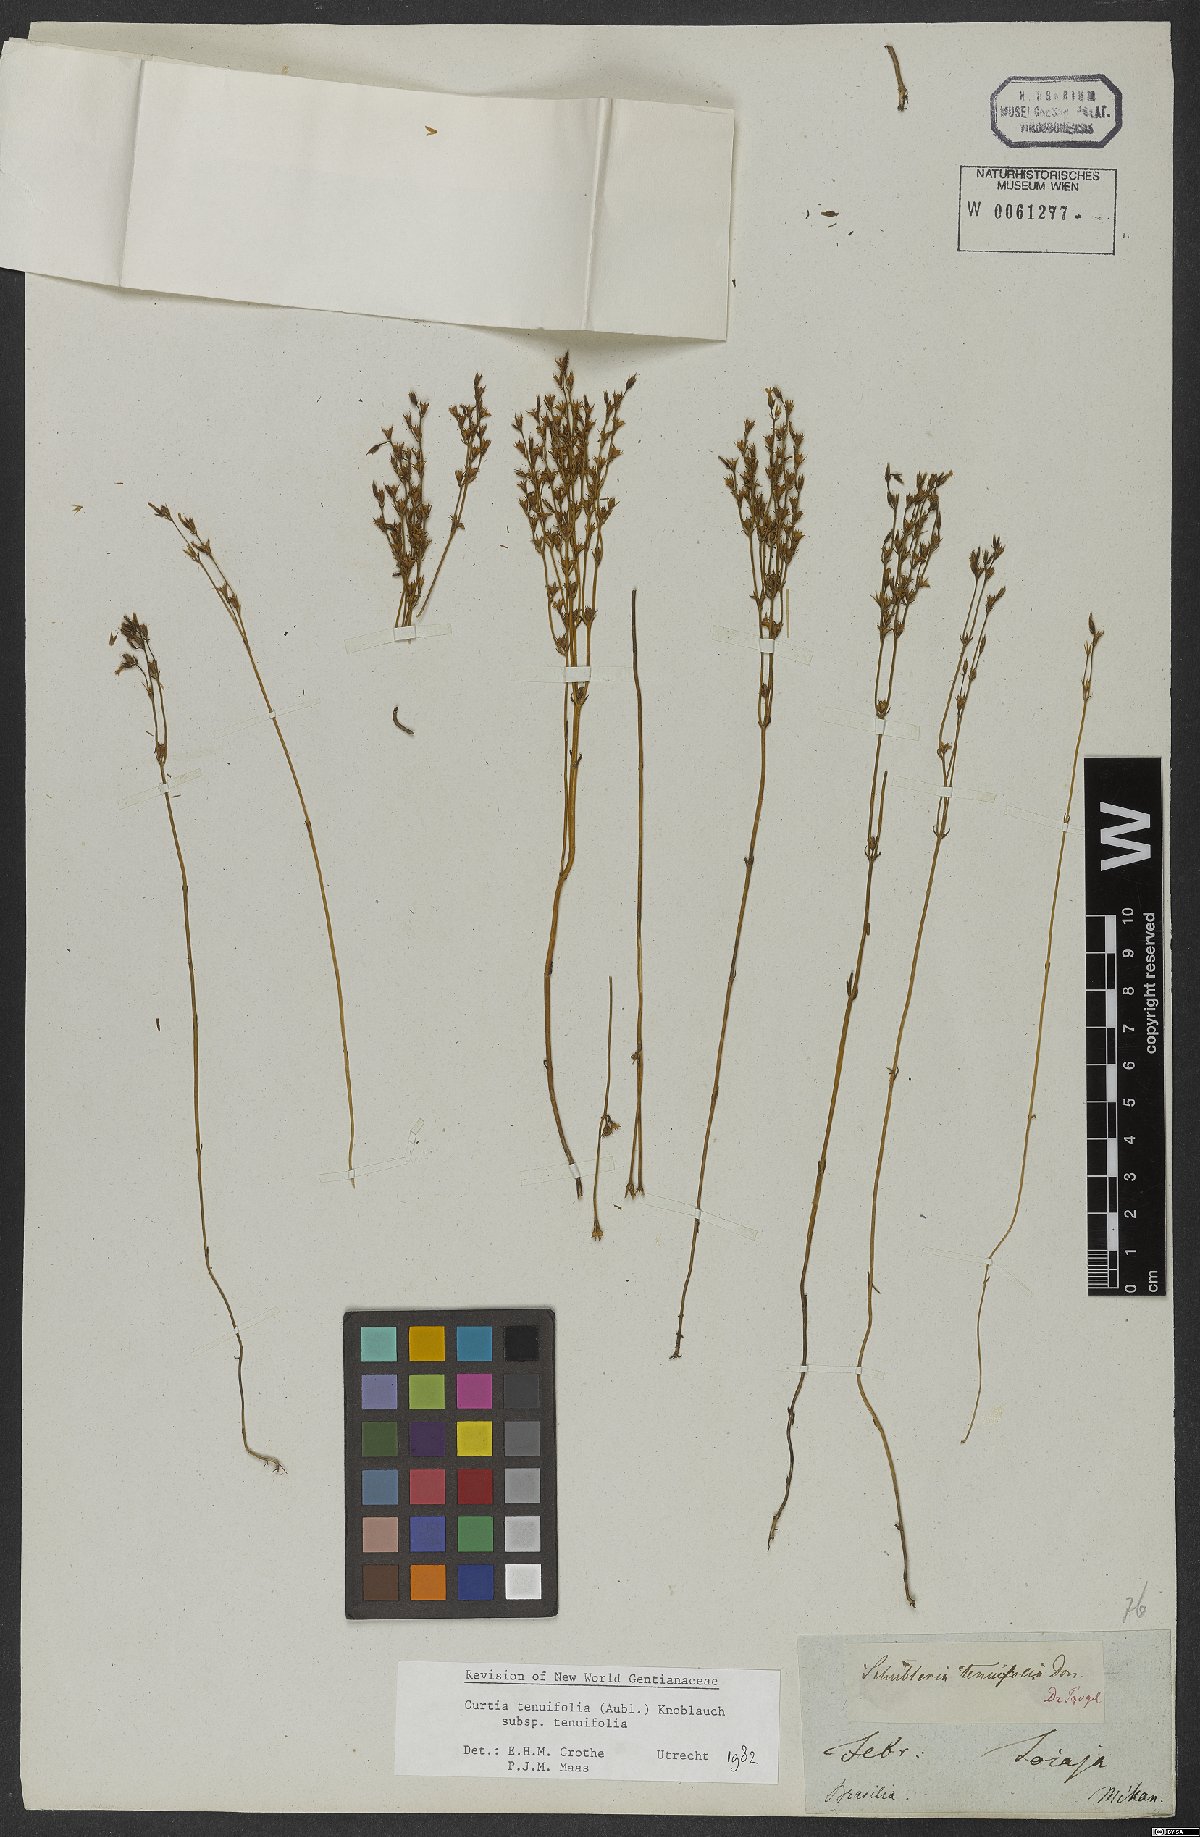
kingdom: Plantae
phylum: Tracheophyta
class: Magnoliopsida
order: Gentianales
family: Gentianaceae
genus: Curtia
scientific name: Curtia tenuifolia
